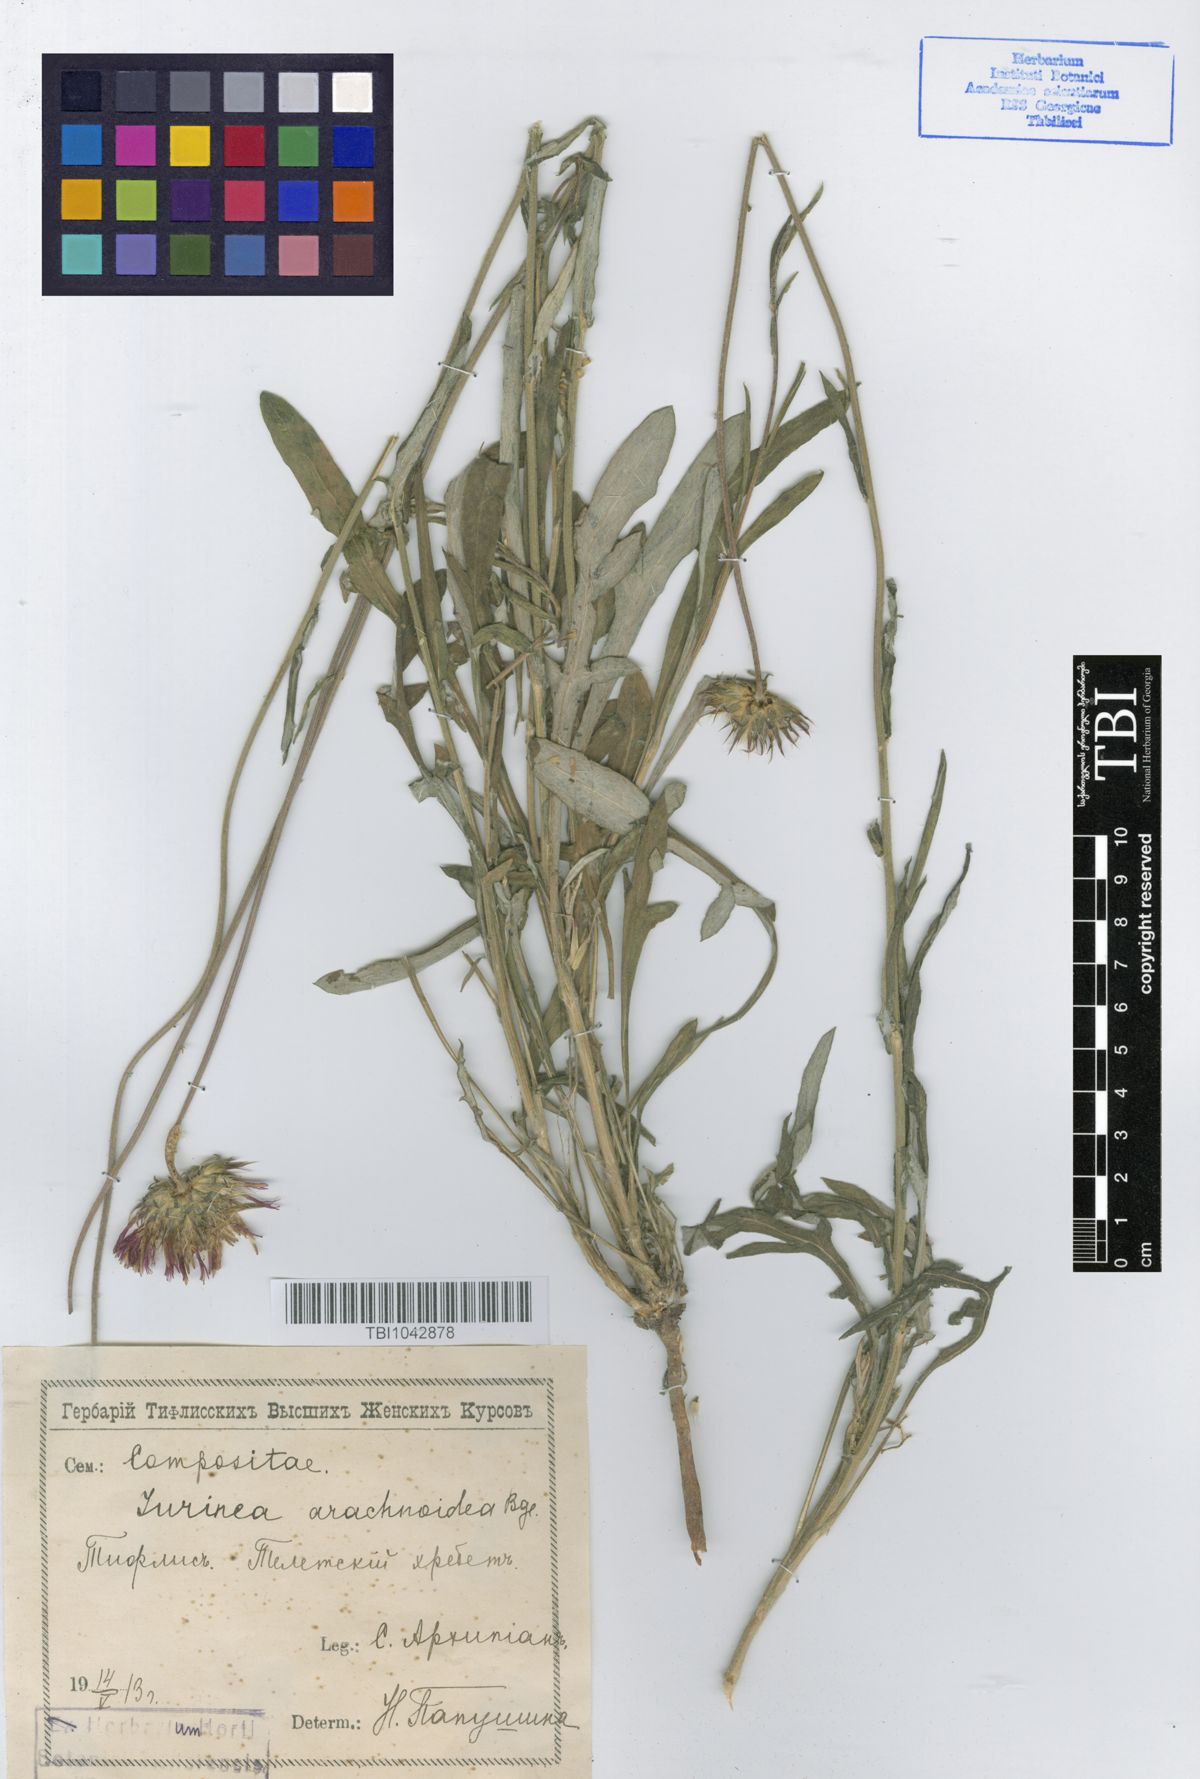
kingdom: Plantae
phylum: Tracheophyta
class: Magnoliopsida
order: Asterales
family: Asteraceae
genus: Jurinea
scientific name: Jurinea blanda
